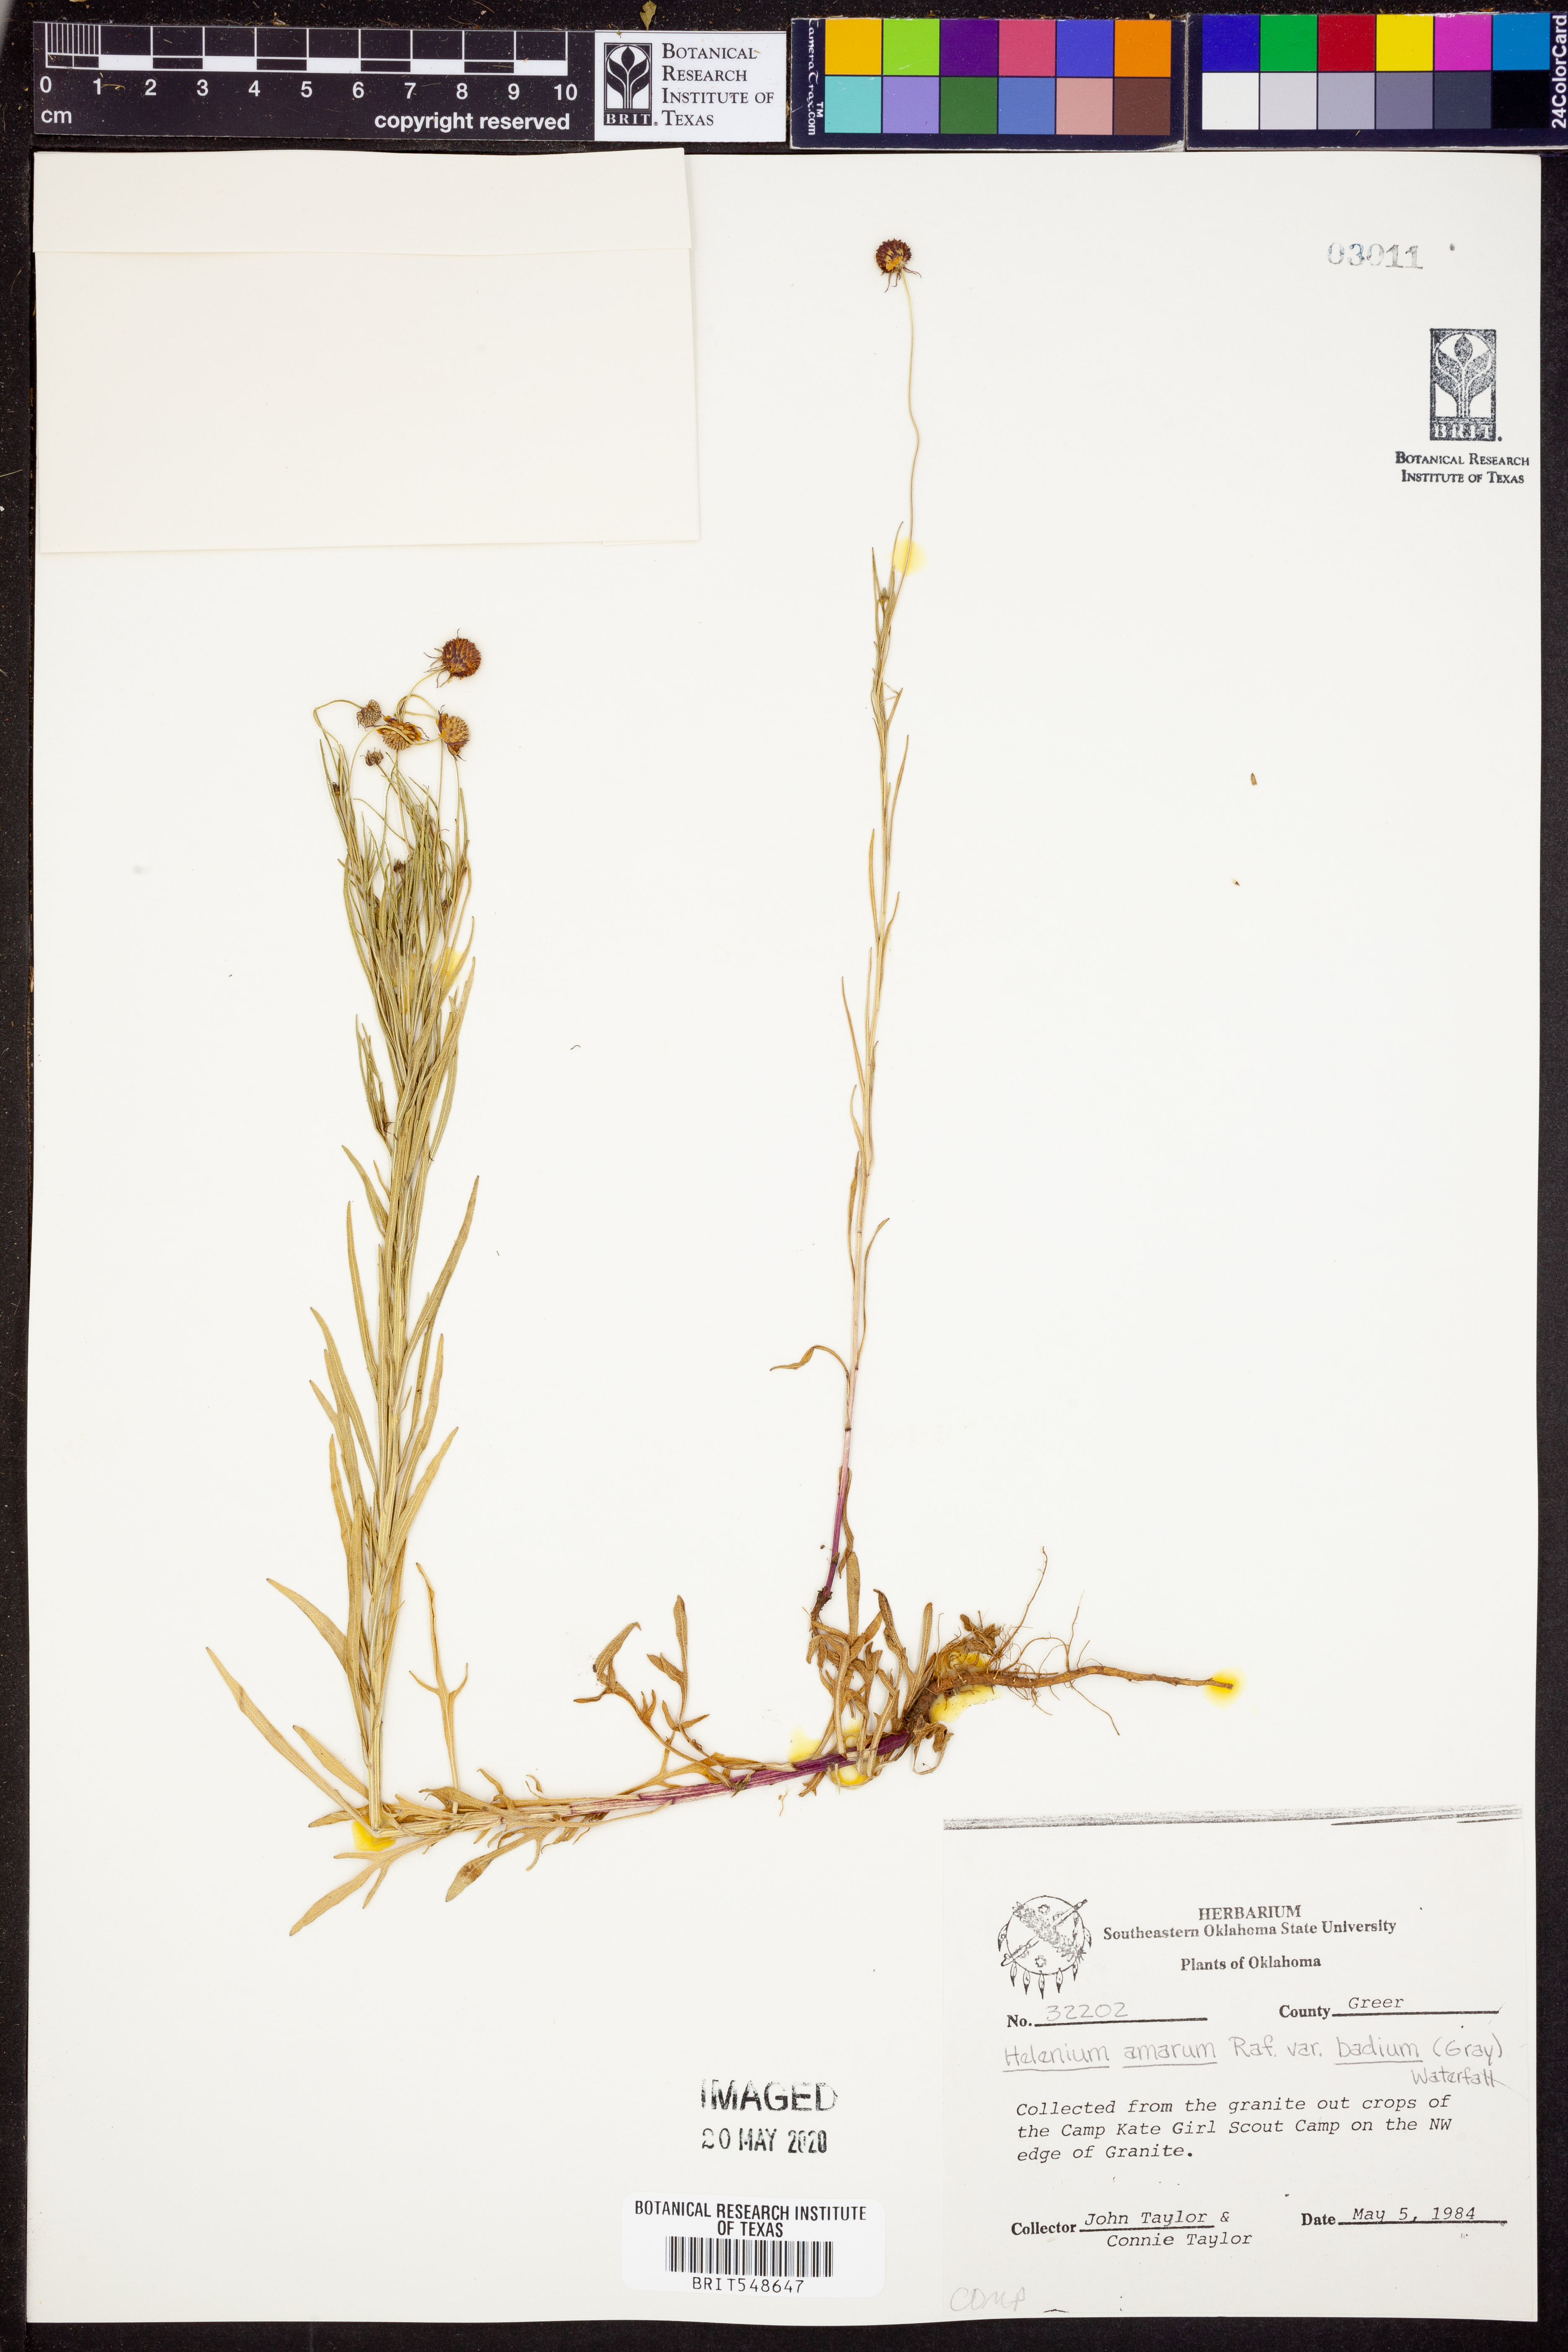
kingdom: Plantae
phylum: Tracheophyta
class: Magnoliopsida
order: Asterales
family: Asteraceae
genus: Helenium
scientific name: Helenium amarum
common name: Bitter sneezeweed
